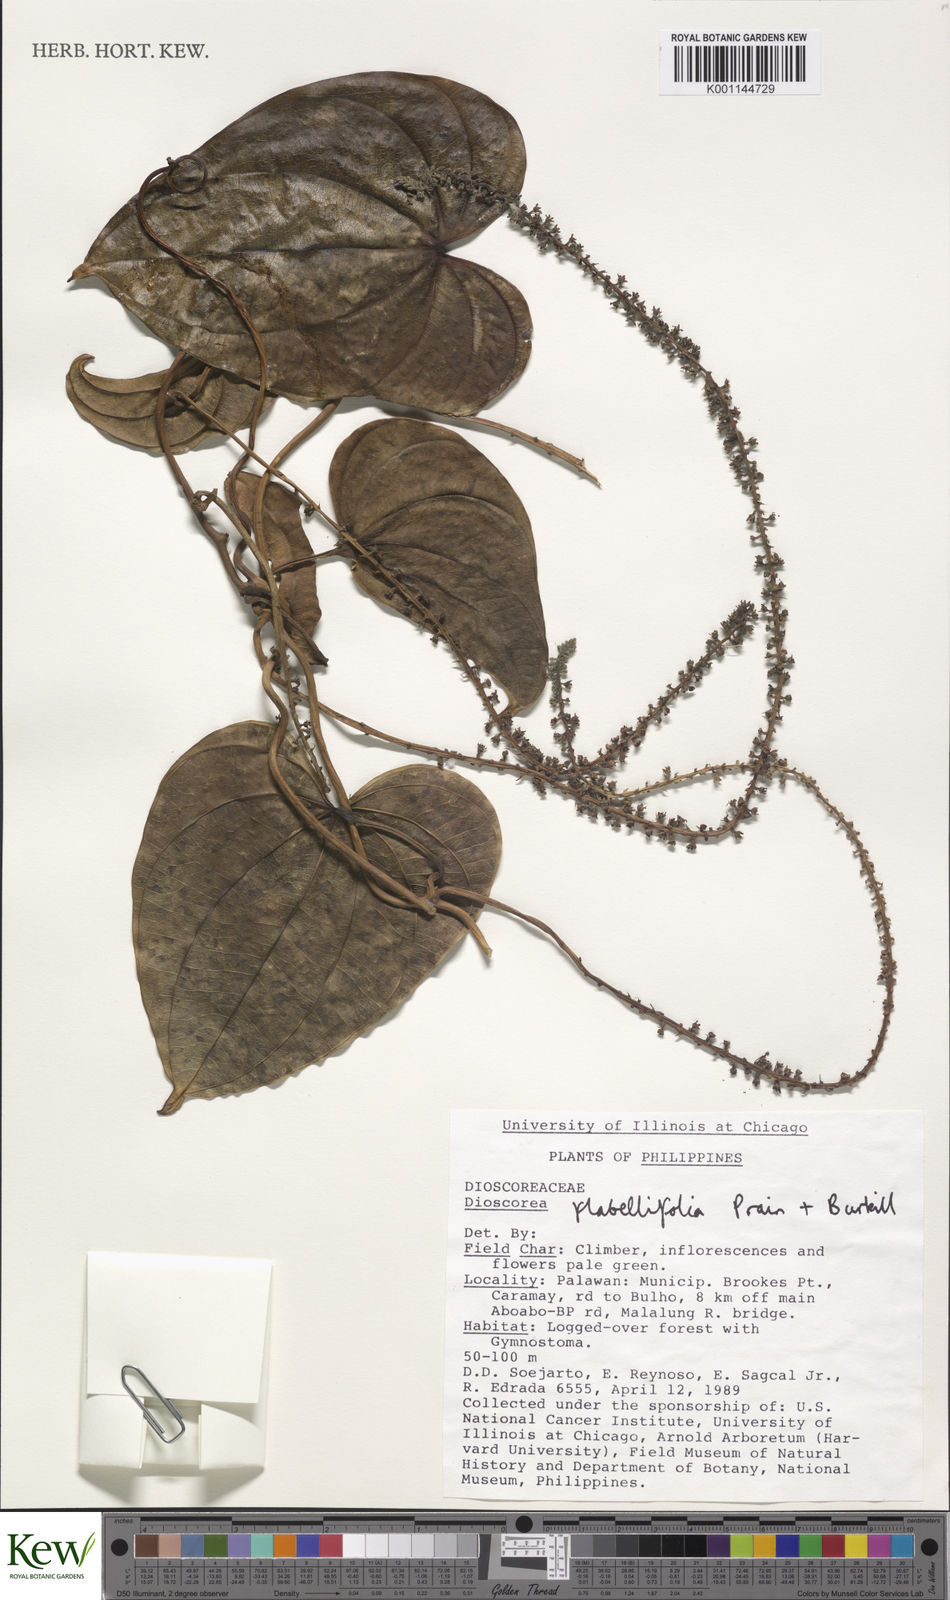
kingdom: Plantae
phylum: Tracheophyta
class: Liliopsida
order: Dioscoreales
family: Dioscoreaceae
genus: Dioscorea
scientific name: Dioscorea flabellifolia
